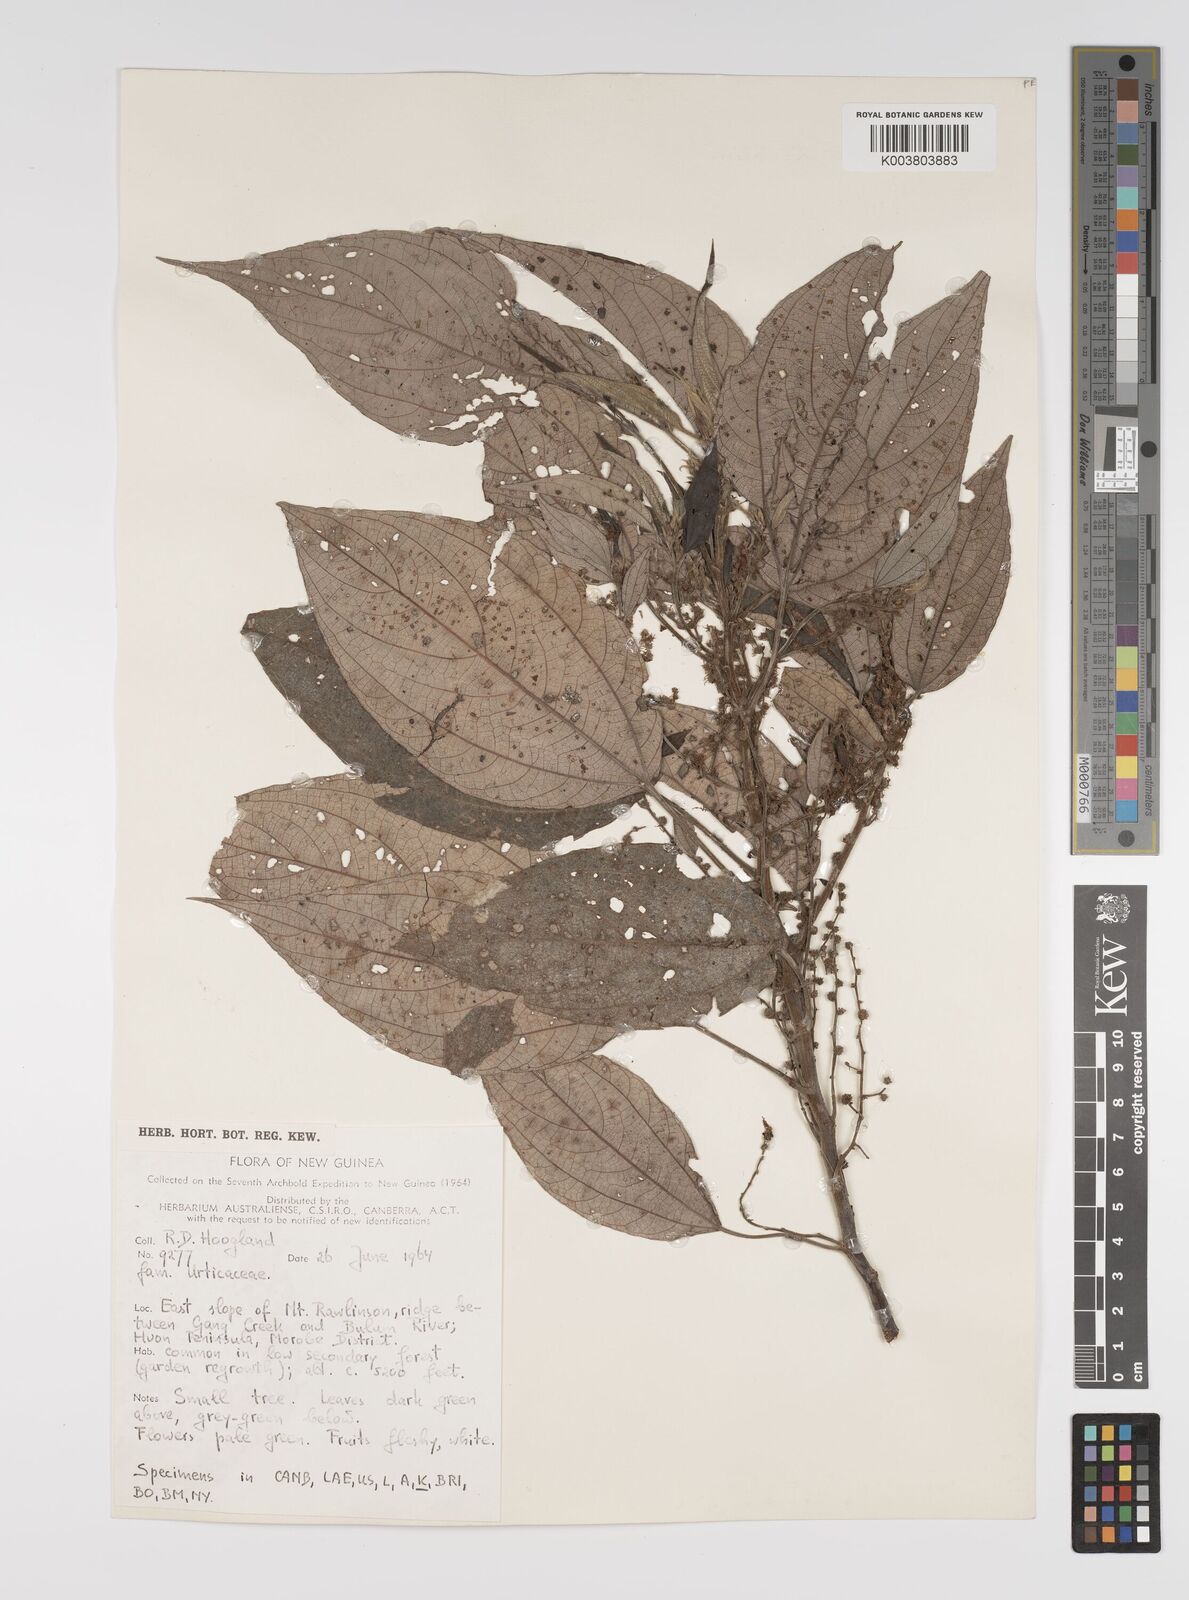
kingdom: Plantae
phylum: Tracheophyta
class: Magnoliopsida
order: Rosales
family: Urticaceae
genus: Pipturus
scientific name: Pipturus argenteus
